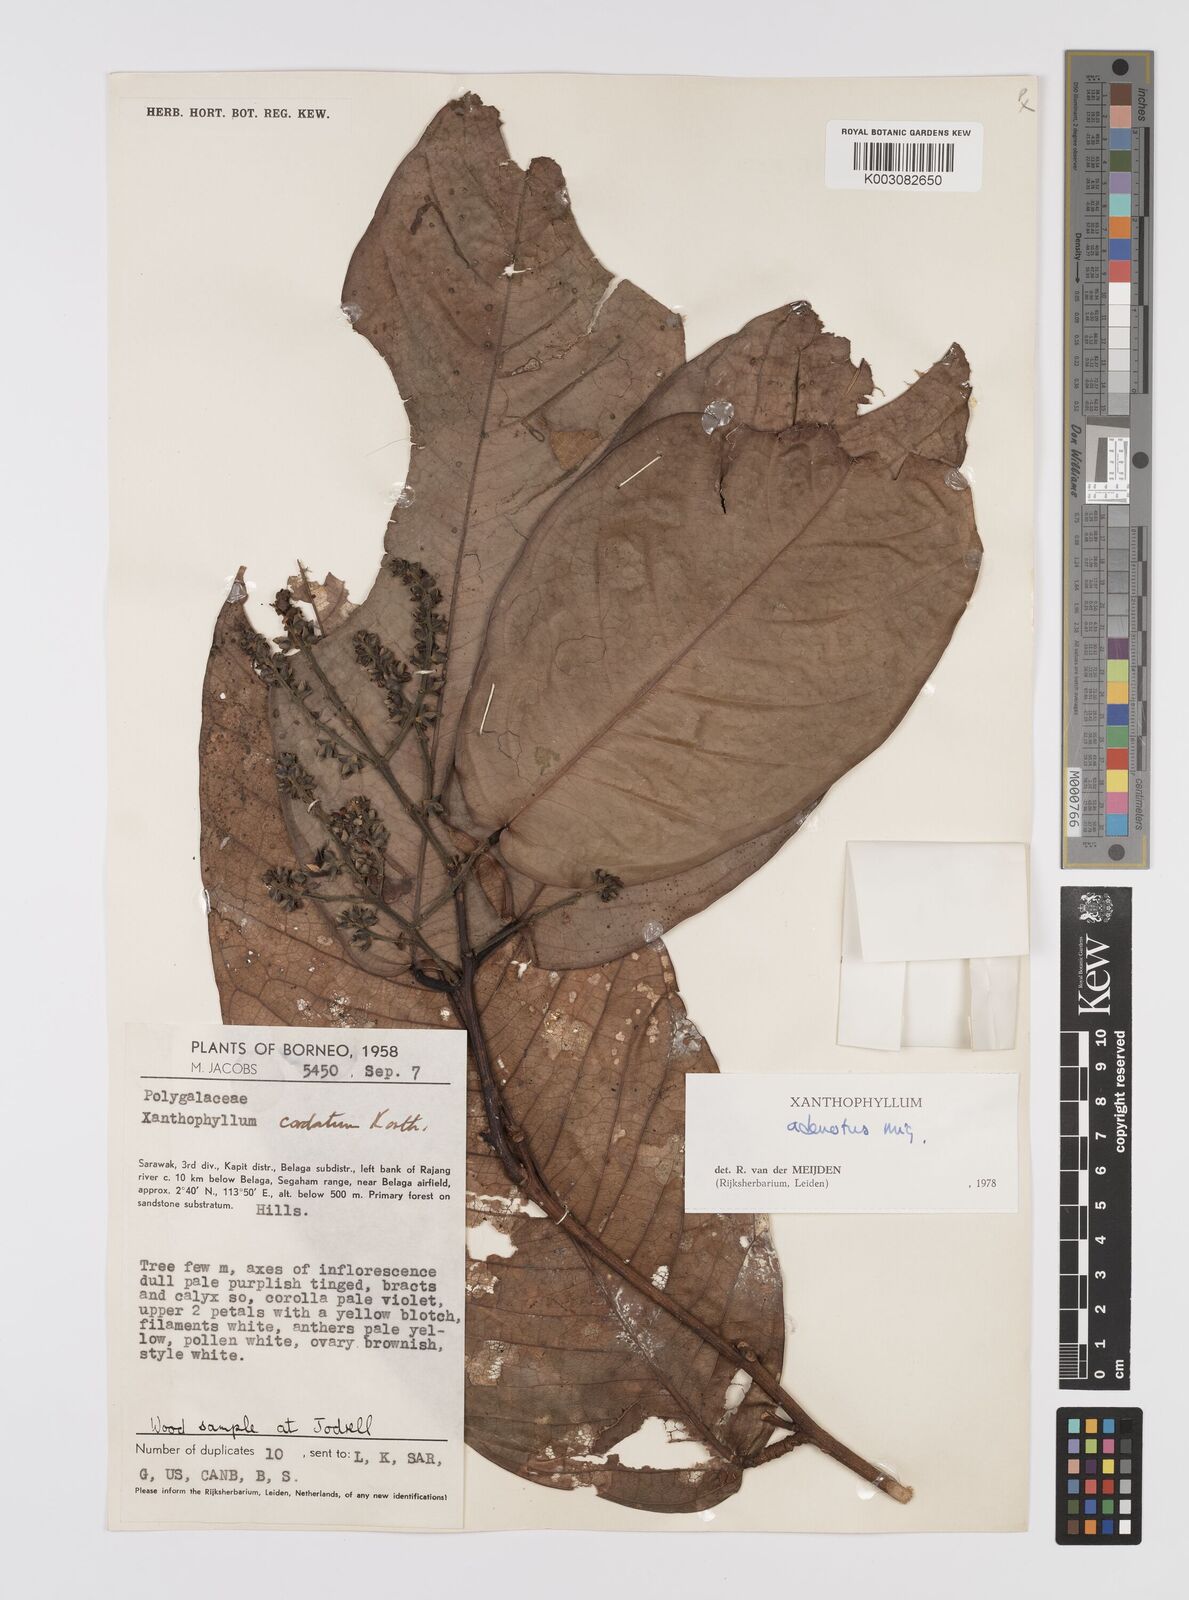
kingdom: Plantae
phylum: Tracheophyta
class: Magnoliopsida
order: Fabales
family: Polygalaceae
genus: Xanthophyllum
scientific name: Xanthophyllum adenotus
